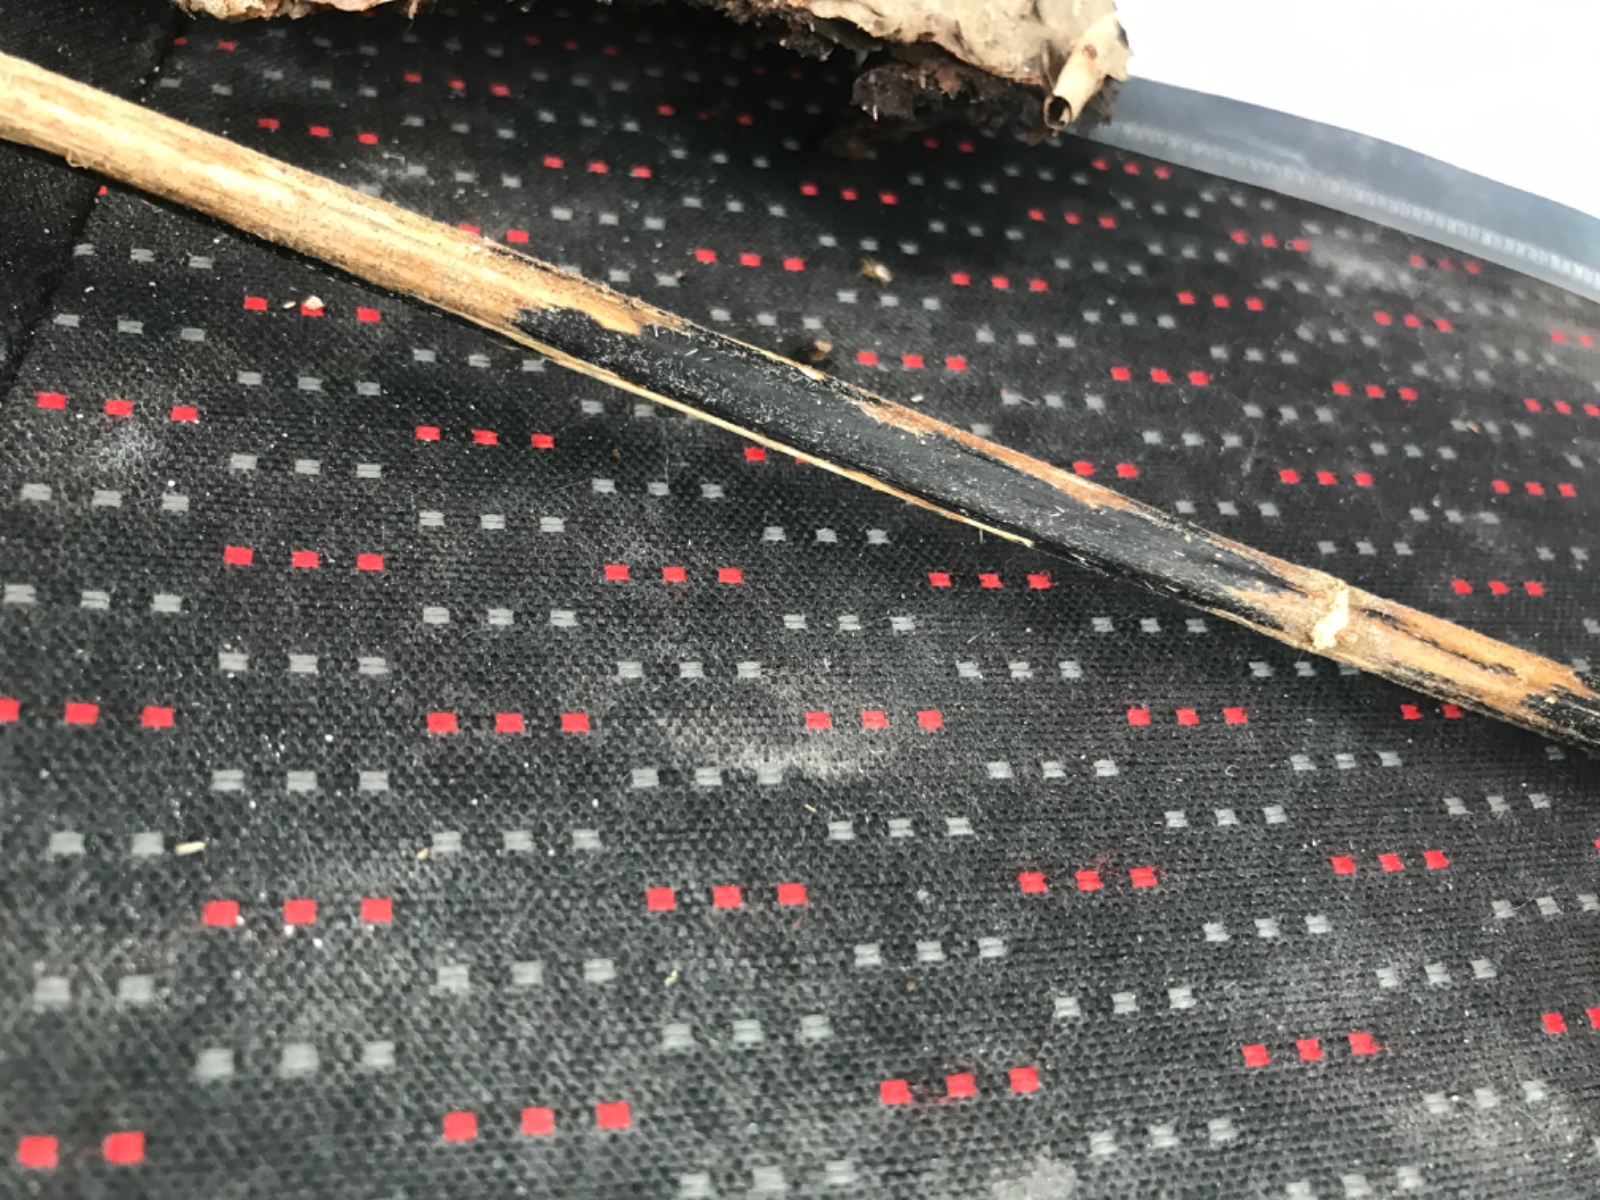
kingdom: Fungi
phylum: Ascomycota
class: Sordariomycetes
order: Diaporthales
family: Diaporthaceae
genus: Diaporthopsis
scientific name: Diaporthopsis urticae
